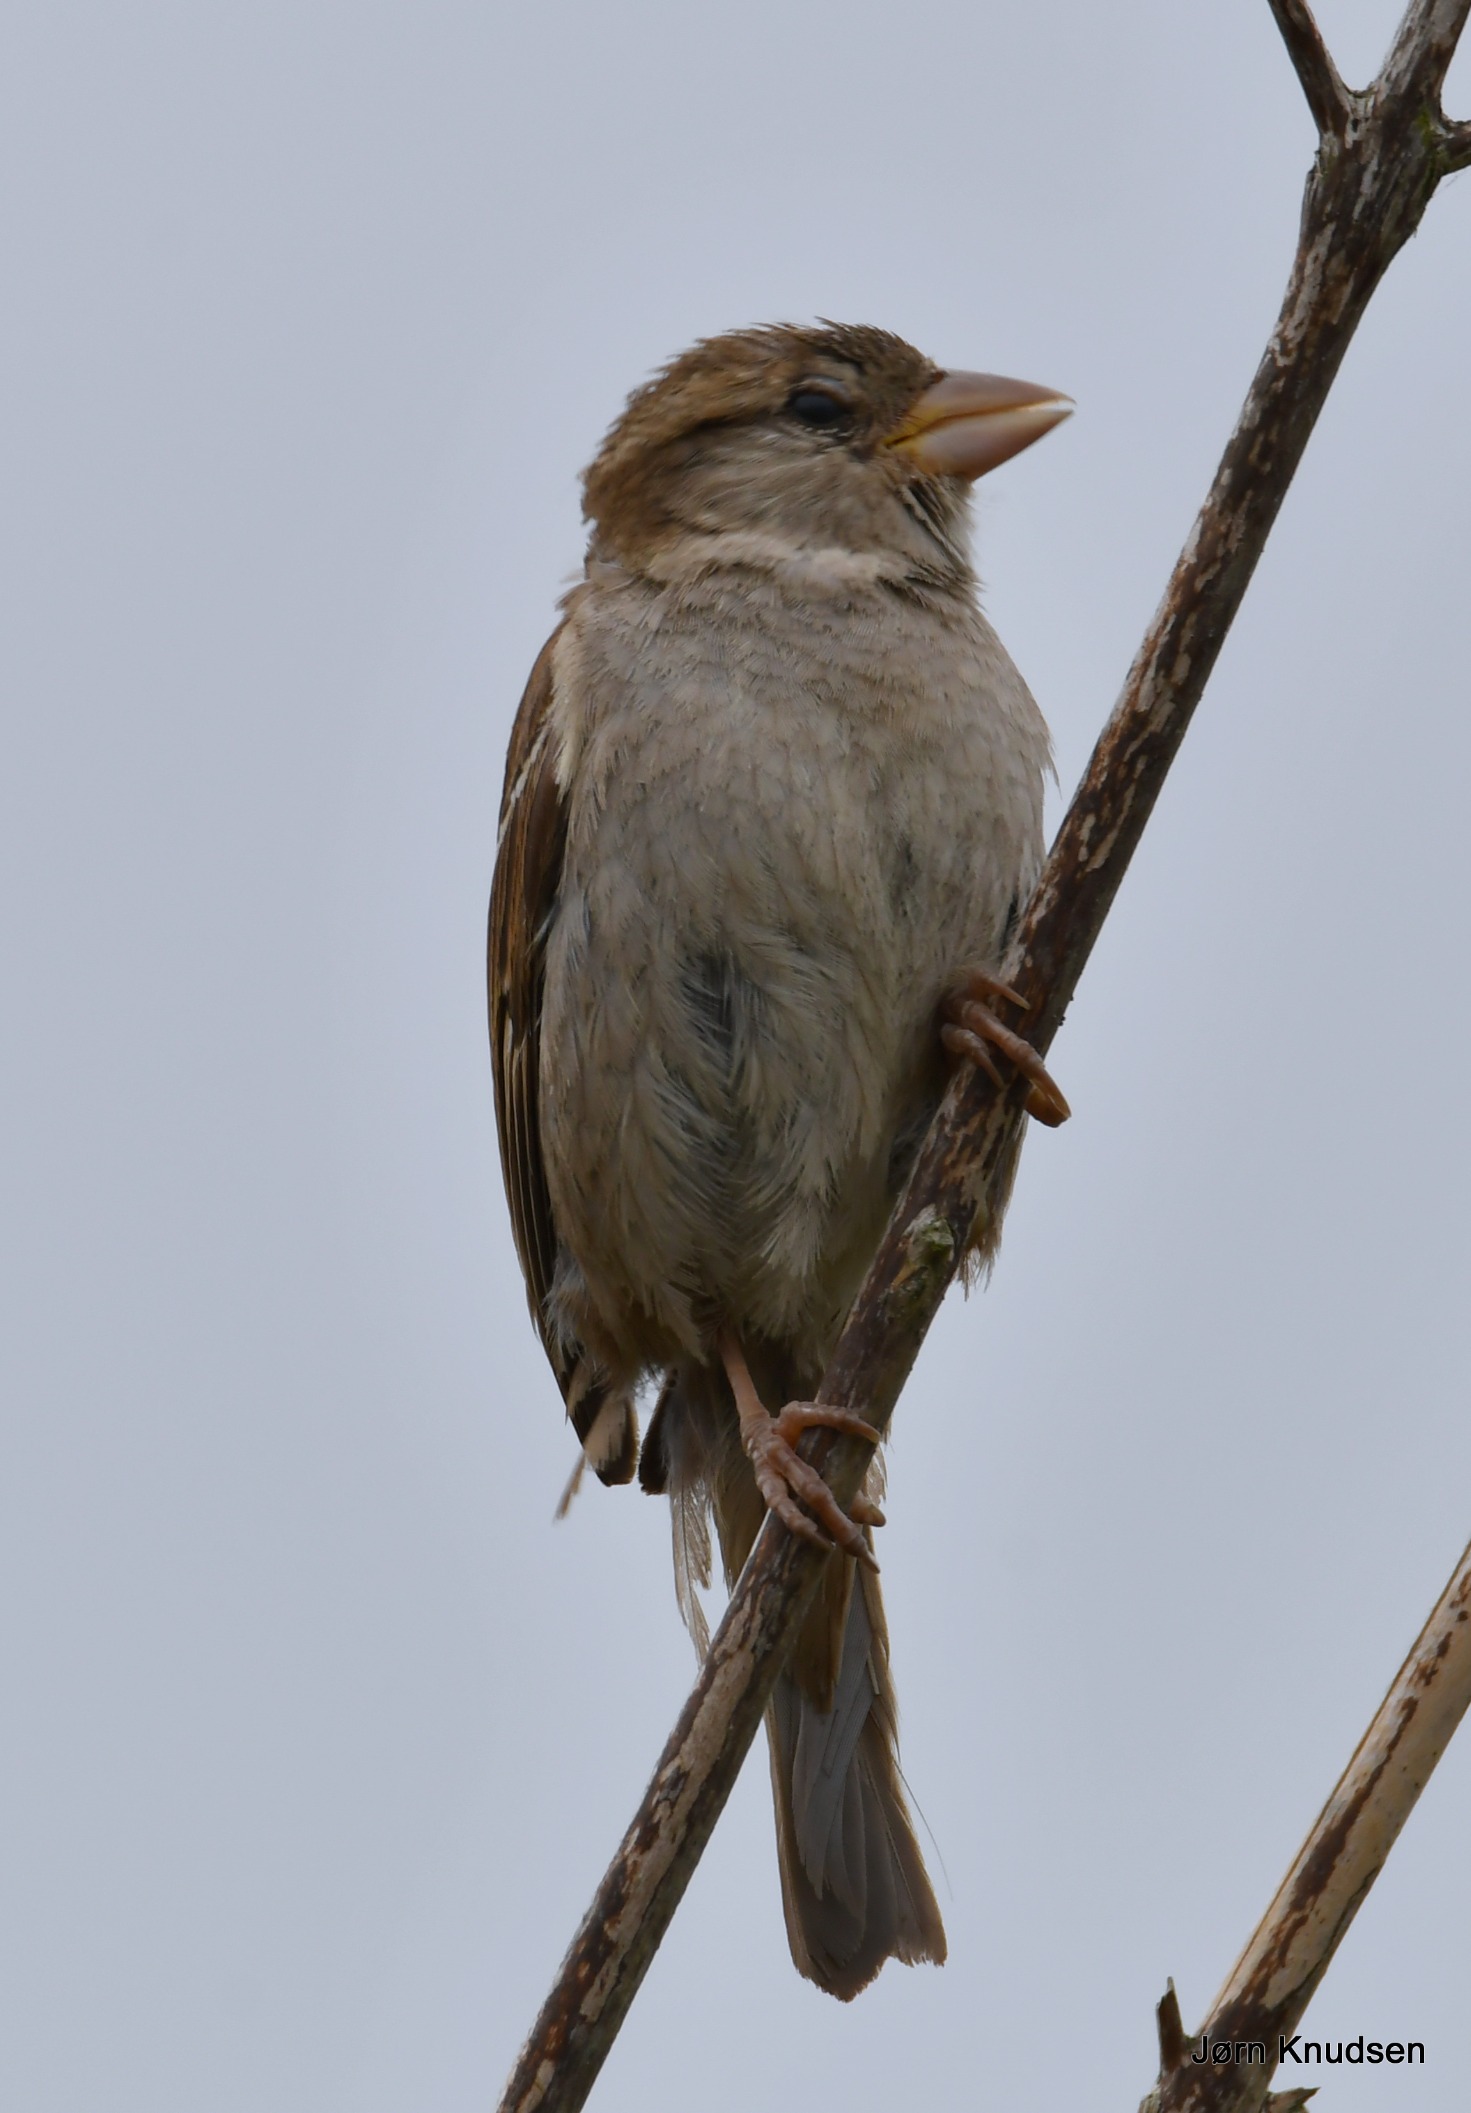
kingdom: Animalia
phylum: Chordata
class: Aves
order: Passeriformes
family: Passeridae
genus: Passer
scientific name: Passer domesticus
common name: Gråspurv
